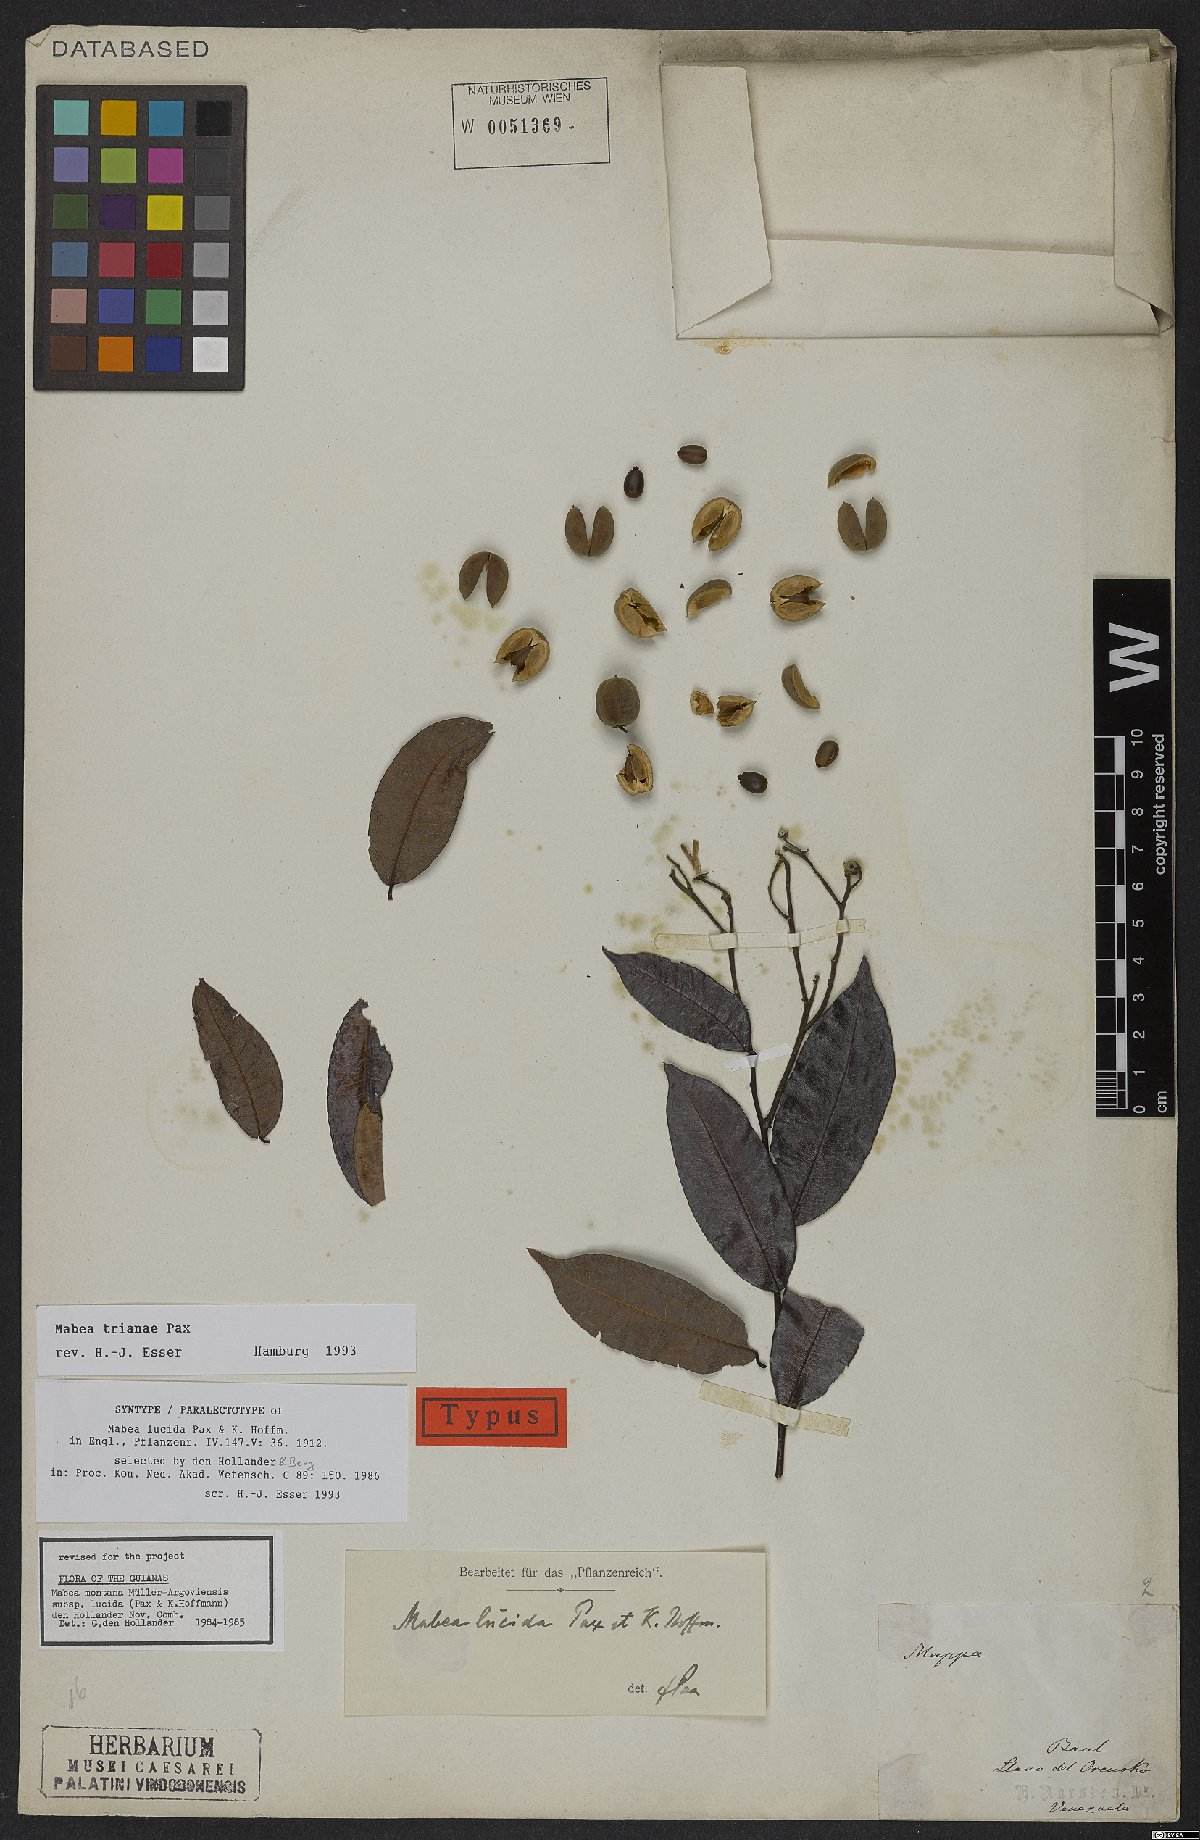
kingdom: Plantae
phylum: Tracheophyta
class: Magnoliopsida
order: Malpighiales
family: Euphorbiaceae
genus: Mabea
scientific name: Mabea trianae
